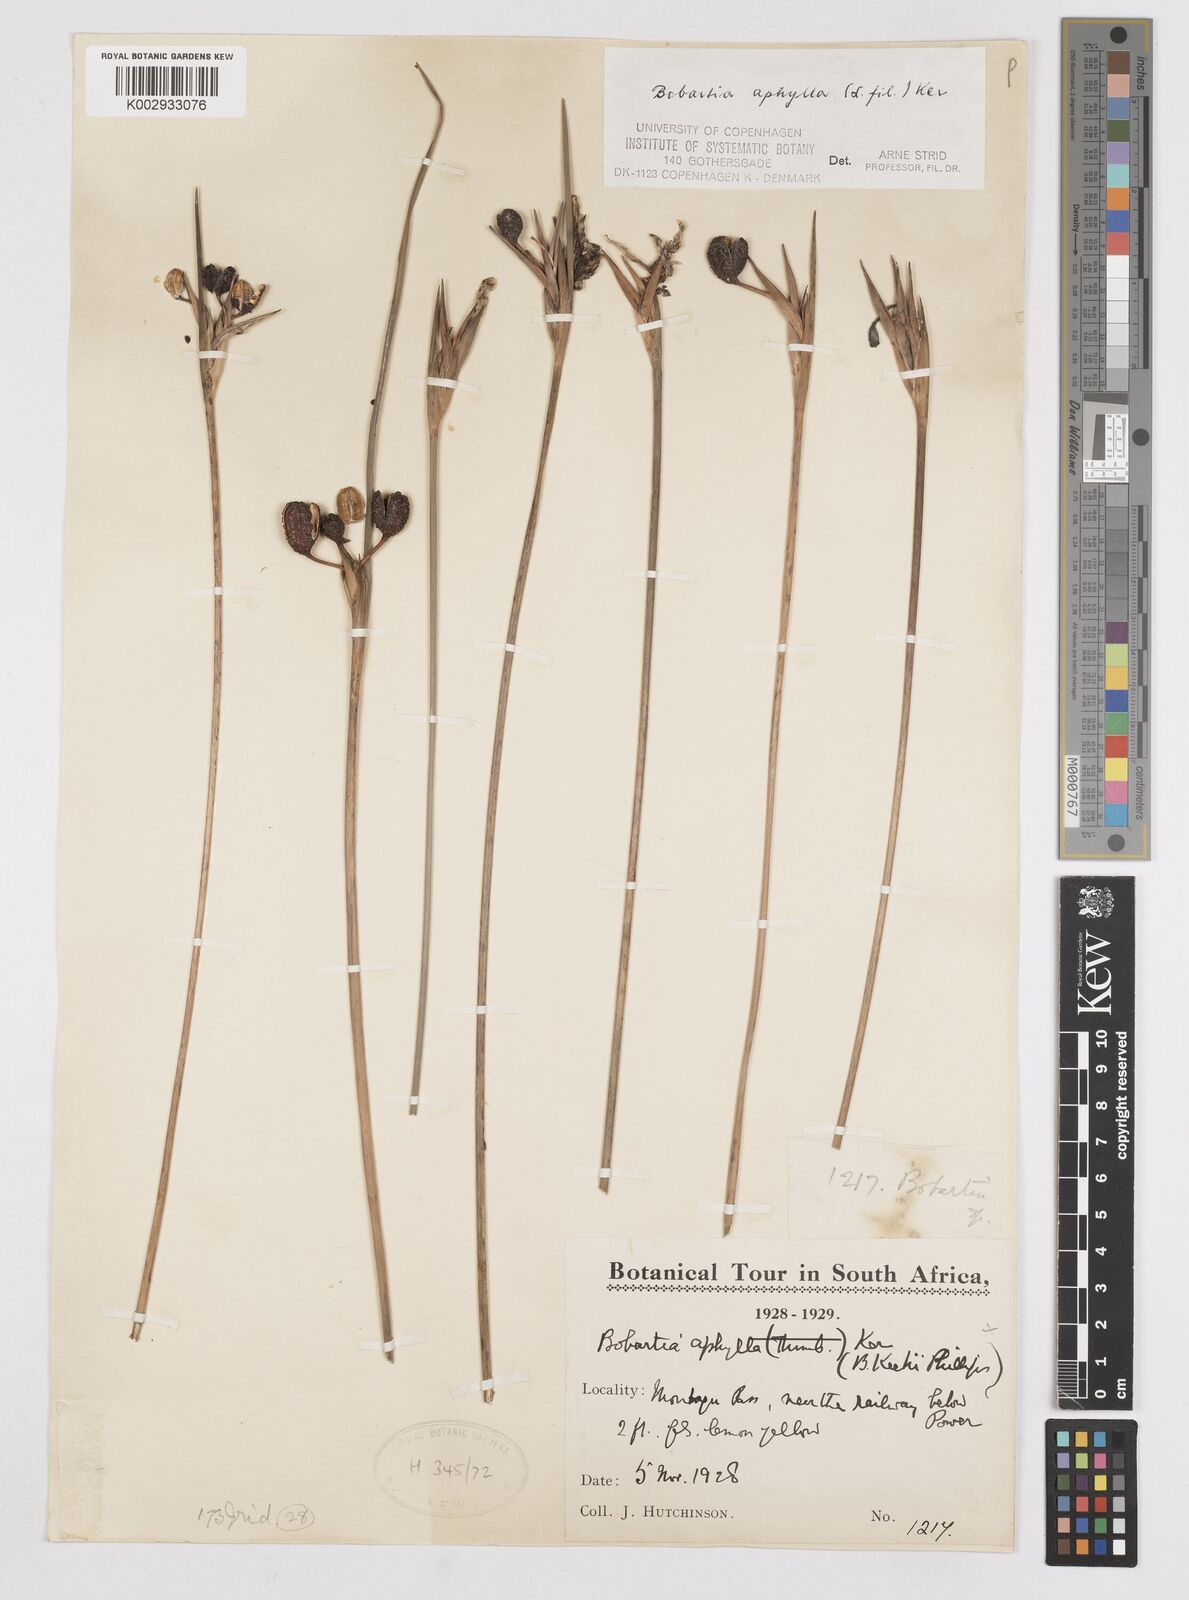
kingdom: Plantae
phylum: Tracheophyta
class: Liliopsida
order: Asparagales
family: Iridaceae
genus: Bobartia
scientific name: Bobartia aphylla
